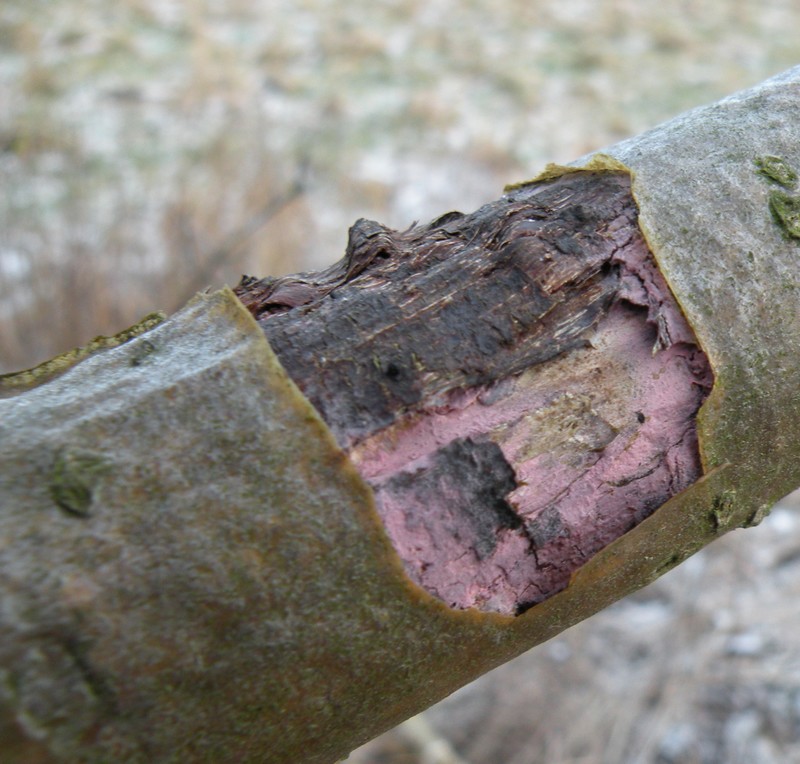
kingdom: Fungi
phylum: Basidiomycota
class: Agaricomycetes
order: Cantharellales
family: Tulasnellaceae
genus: Tulasnella
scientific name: Tulasnella violea
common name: violet ballonhinde
